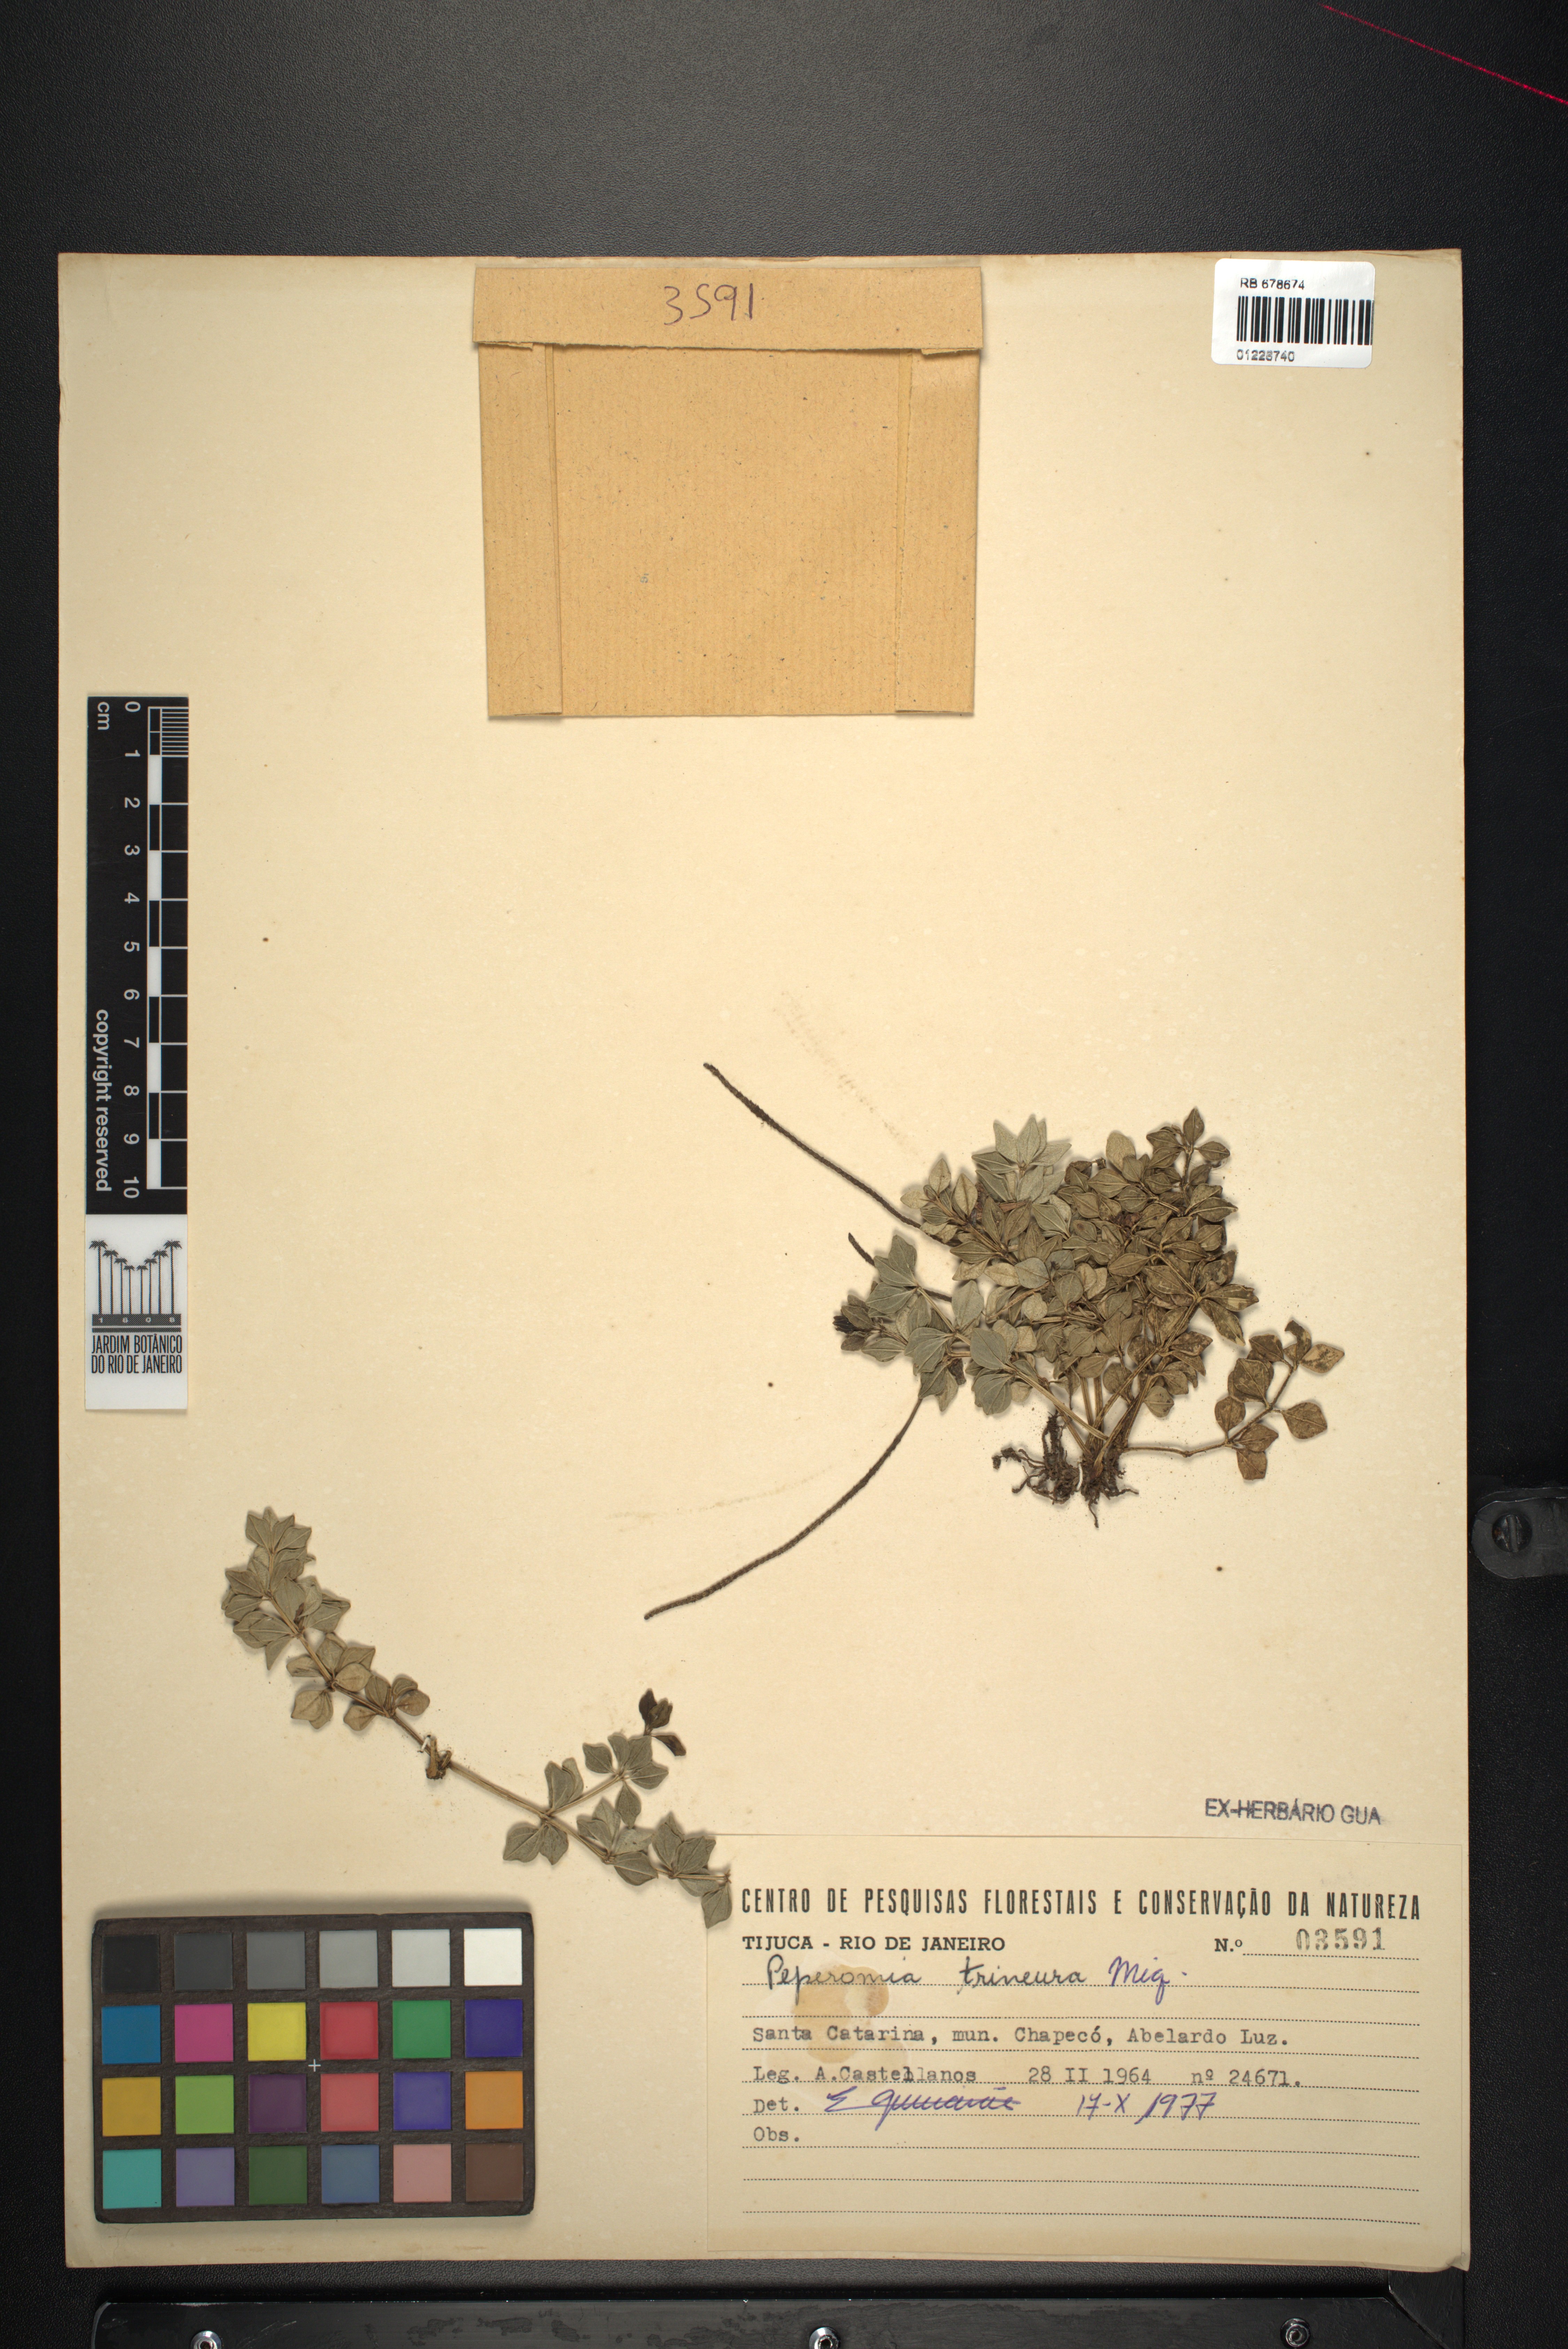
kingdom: Plantae
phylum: Tracheophyta
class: Magnoliopsida
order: Piperales
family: Piperaceae
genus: Peperomia
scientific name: Peperomia trineura
